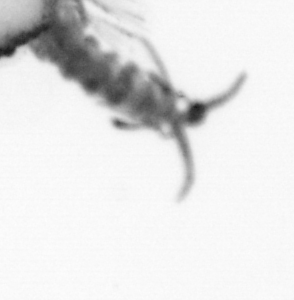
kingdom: Animalia
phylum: Annelida
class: Polychaeta
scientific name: Polychaeta
